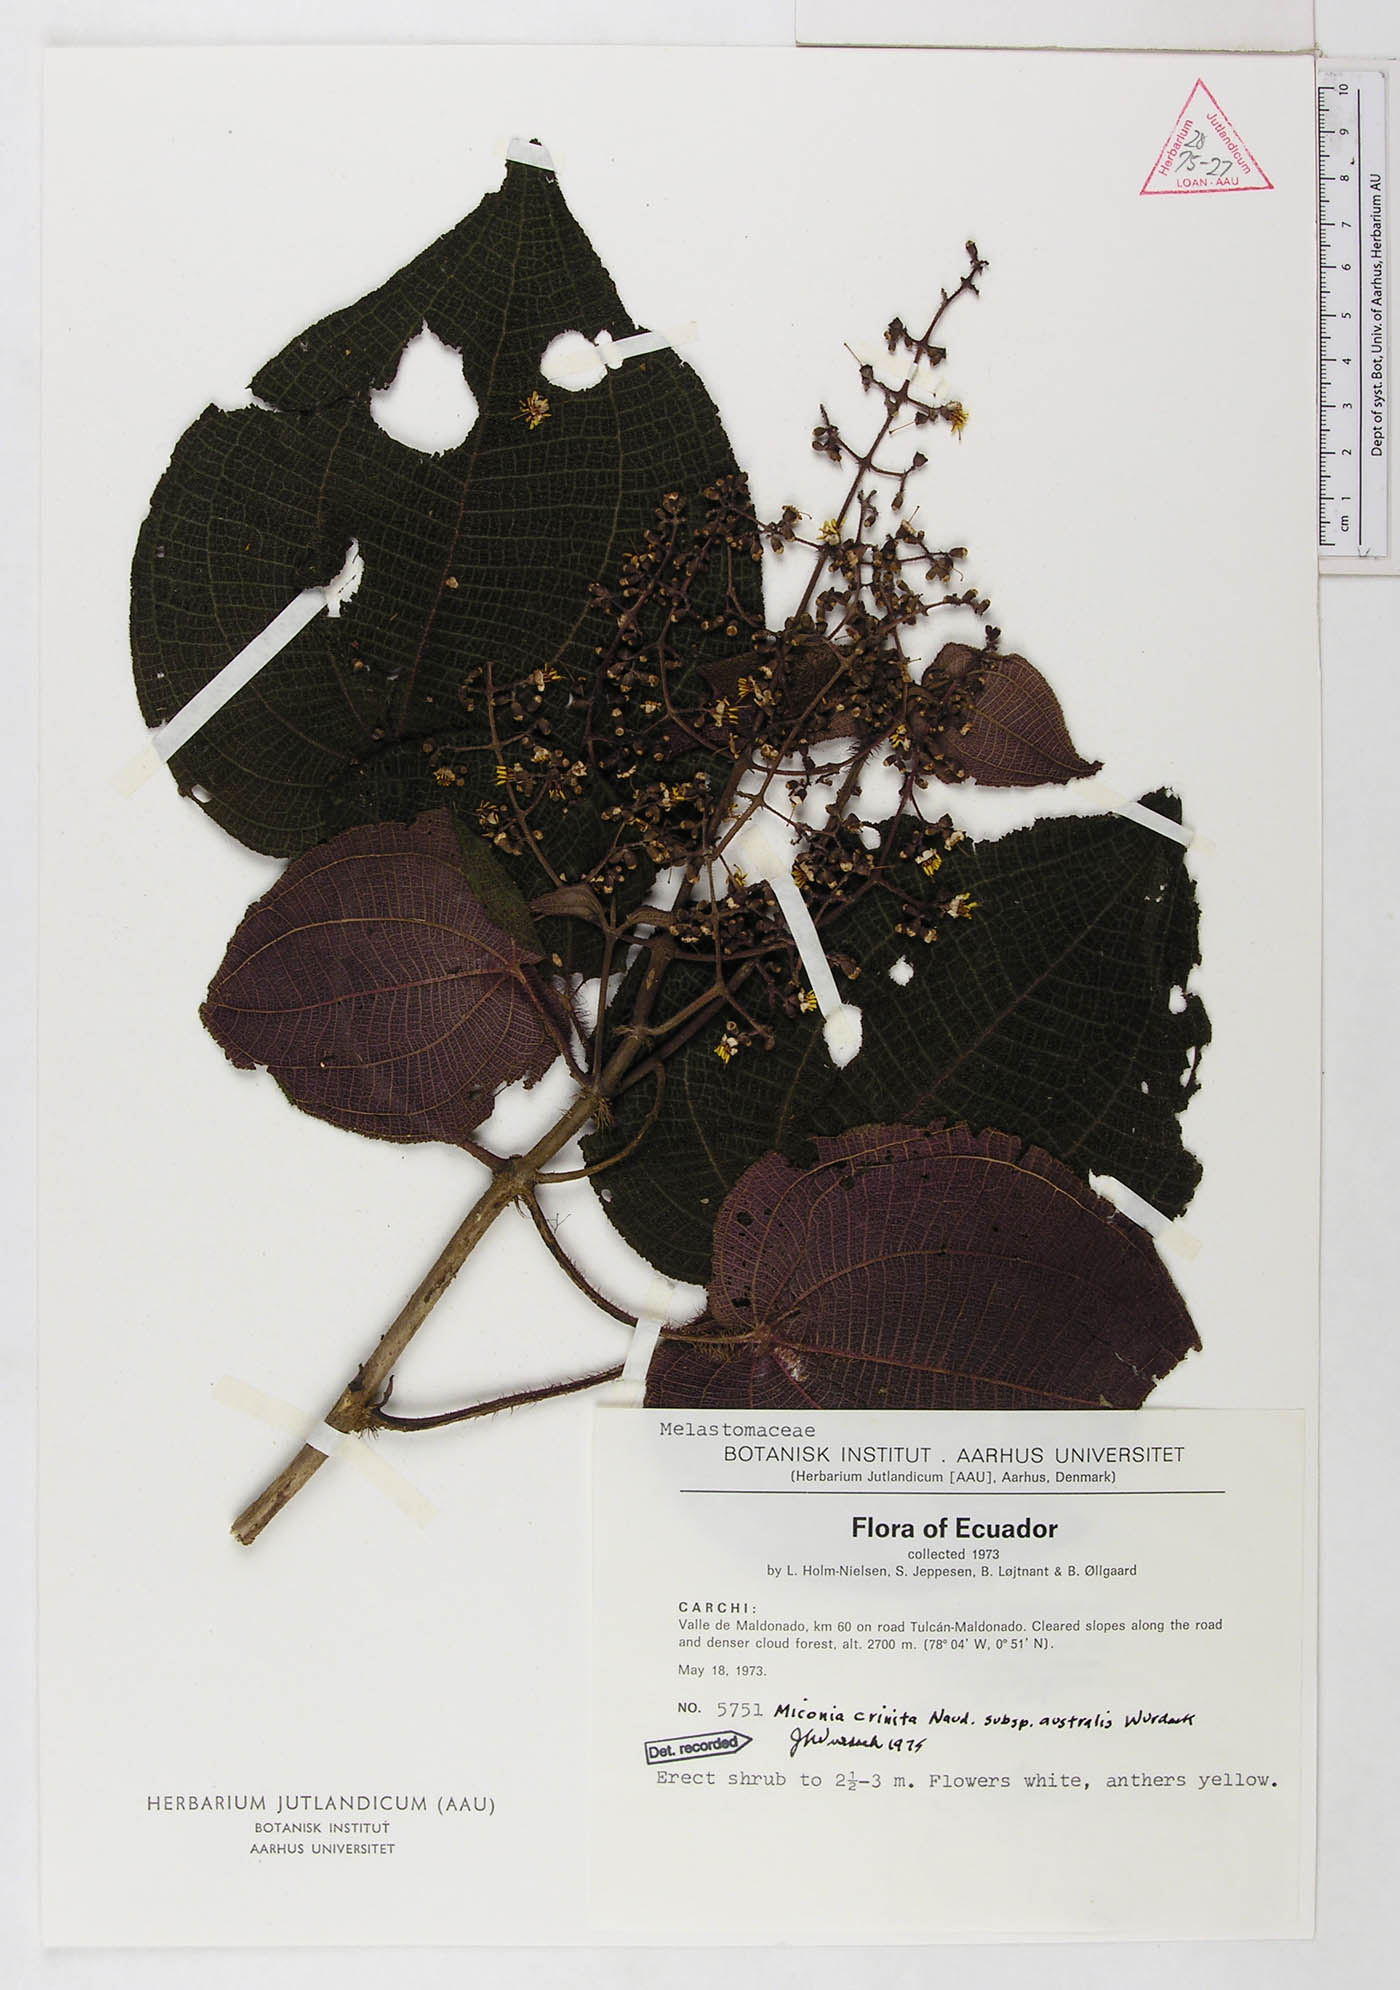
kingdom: Plantae
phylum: Tracheophyta
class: Magnoliopsida
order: Myrtales
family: Melastomataceae
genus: Miconia
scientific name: Miconia crinita
